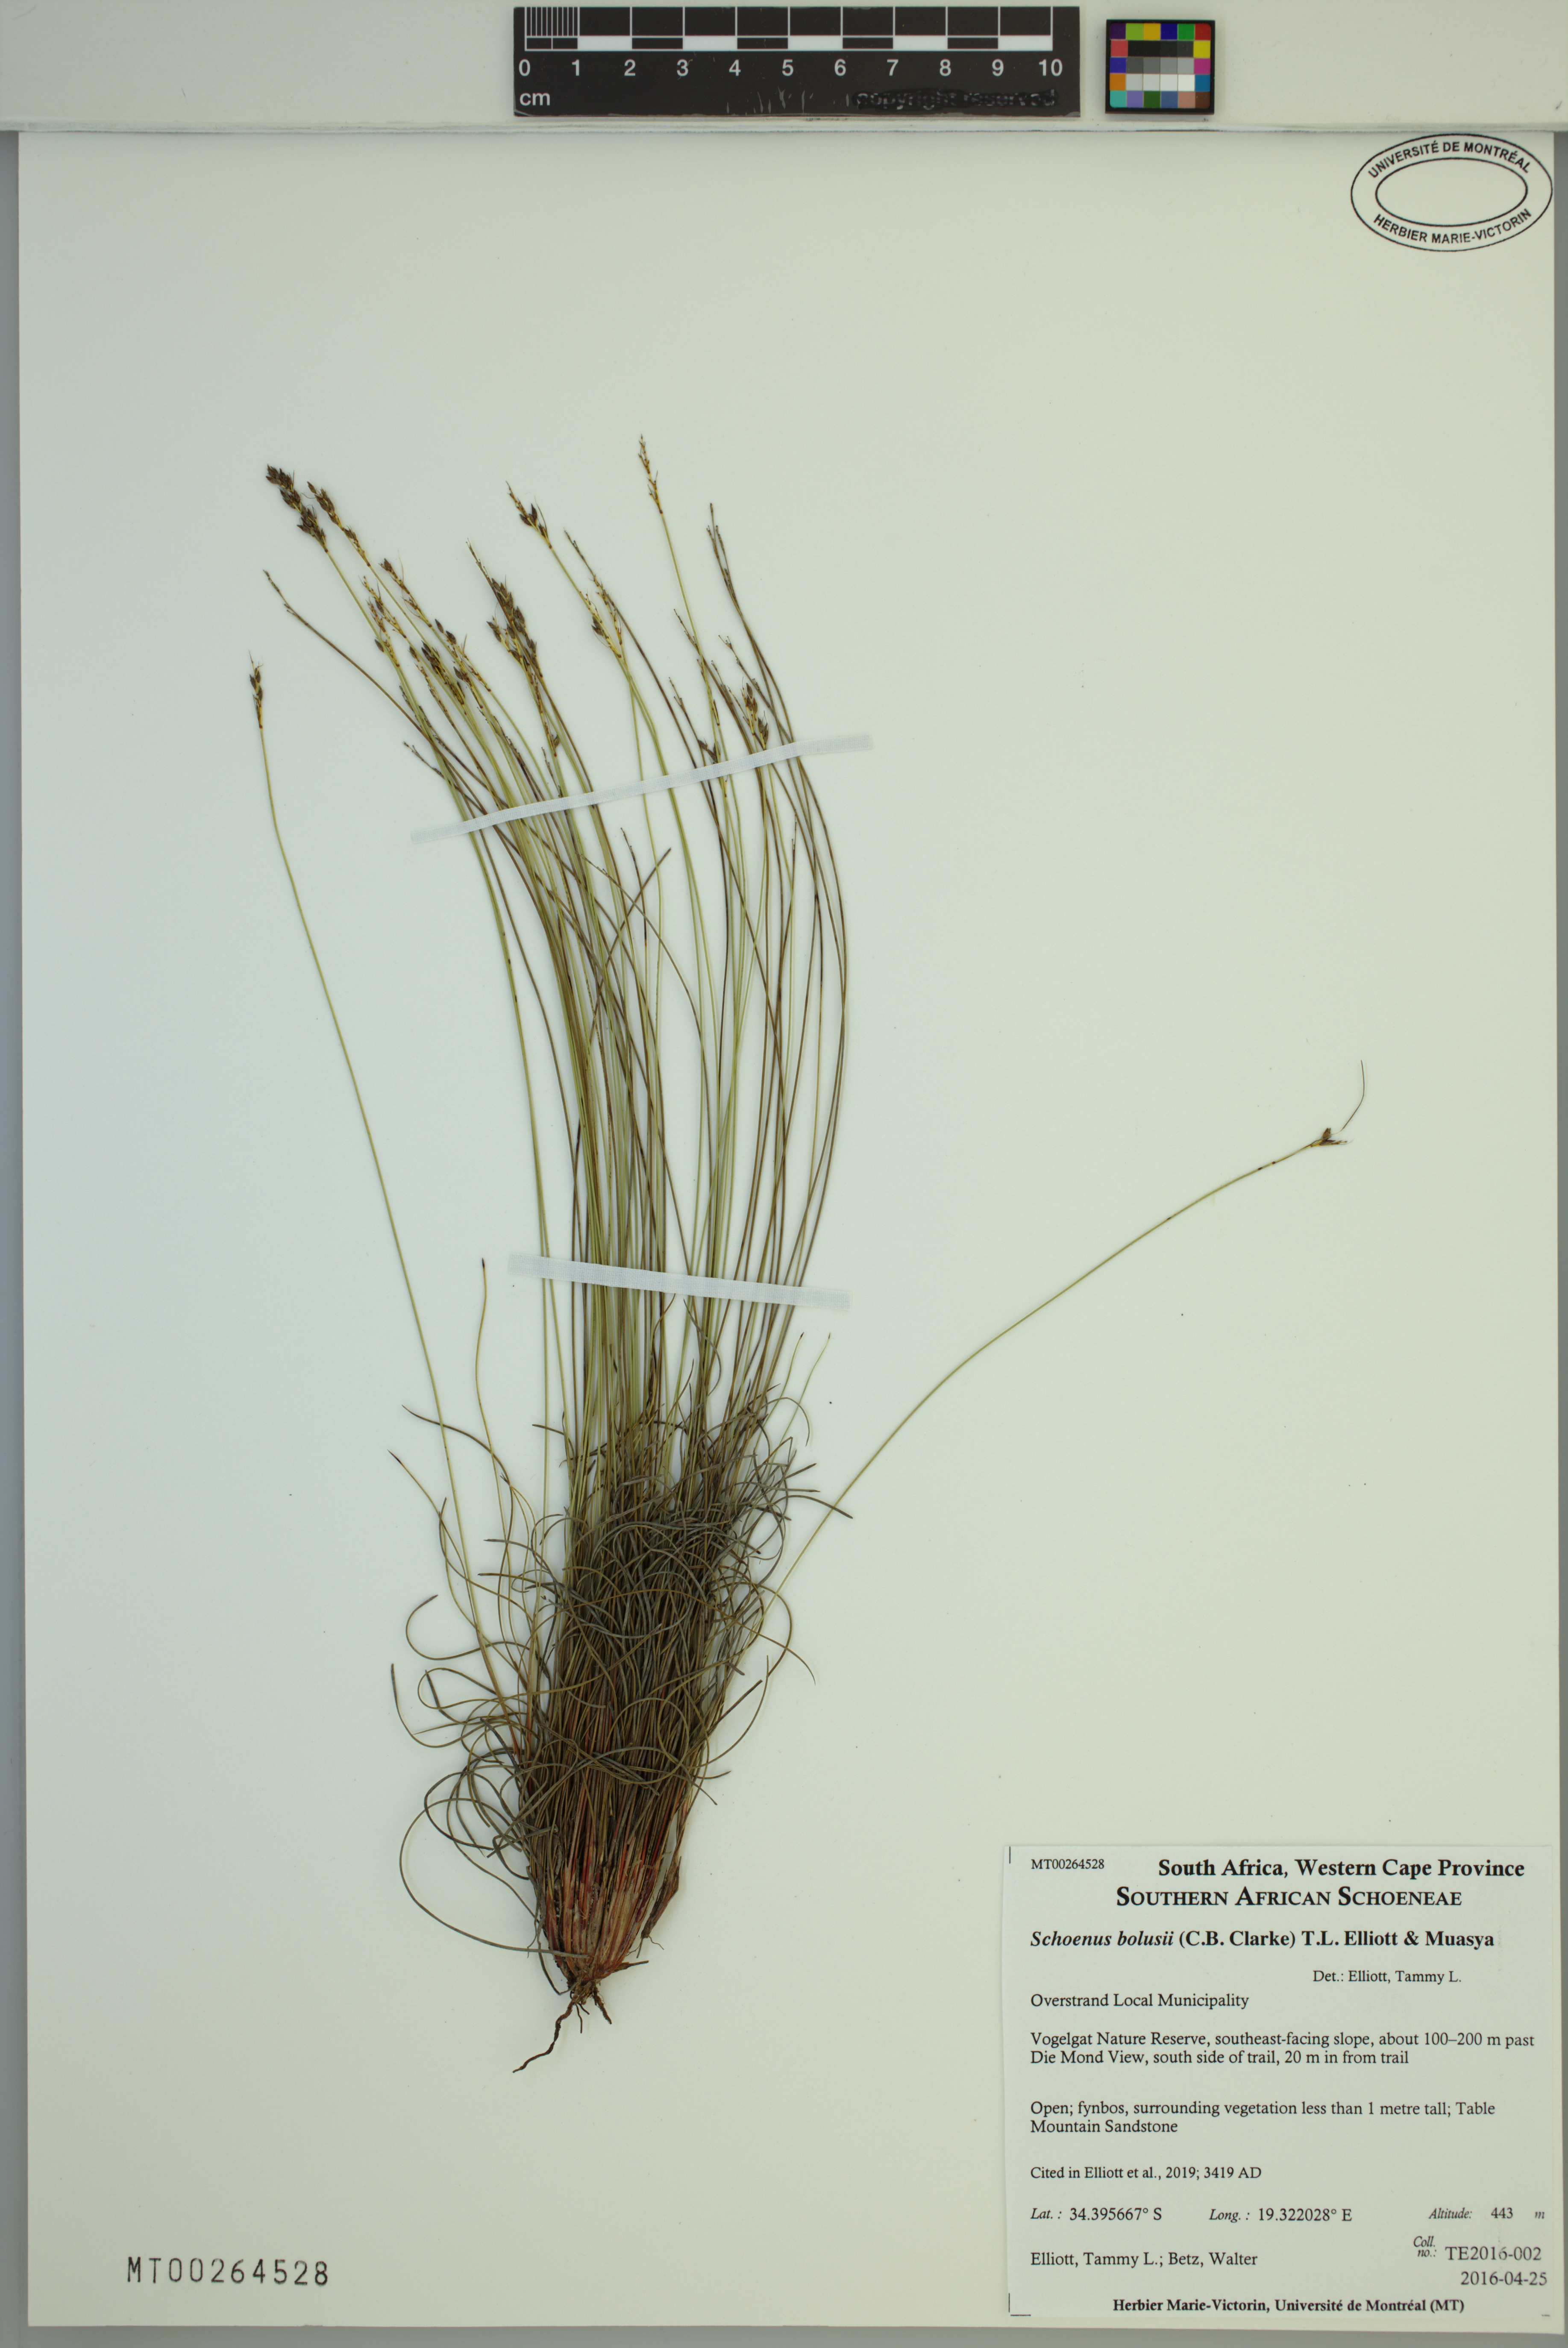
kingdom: Plantae
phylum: Tracheophyta
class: Liliopsida
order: Poales
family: Cyperaceae
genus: Schoenus
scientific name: Schoenus bolusii
